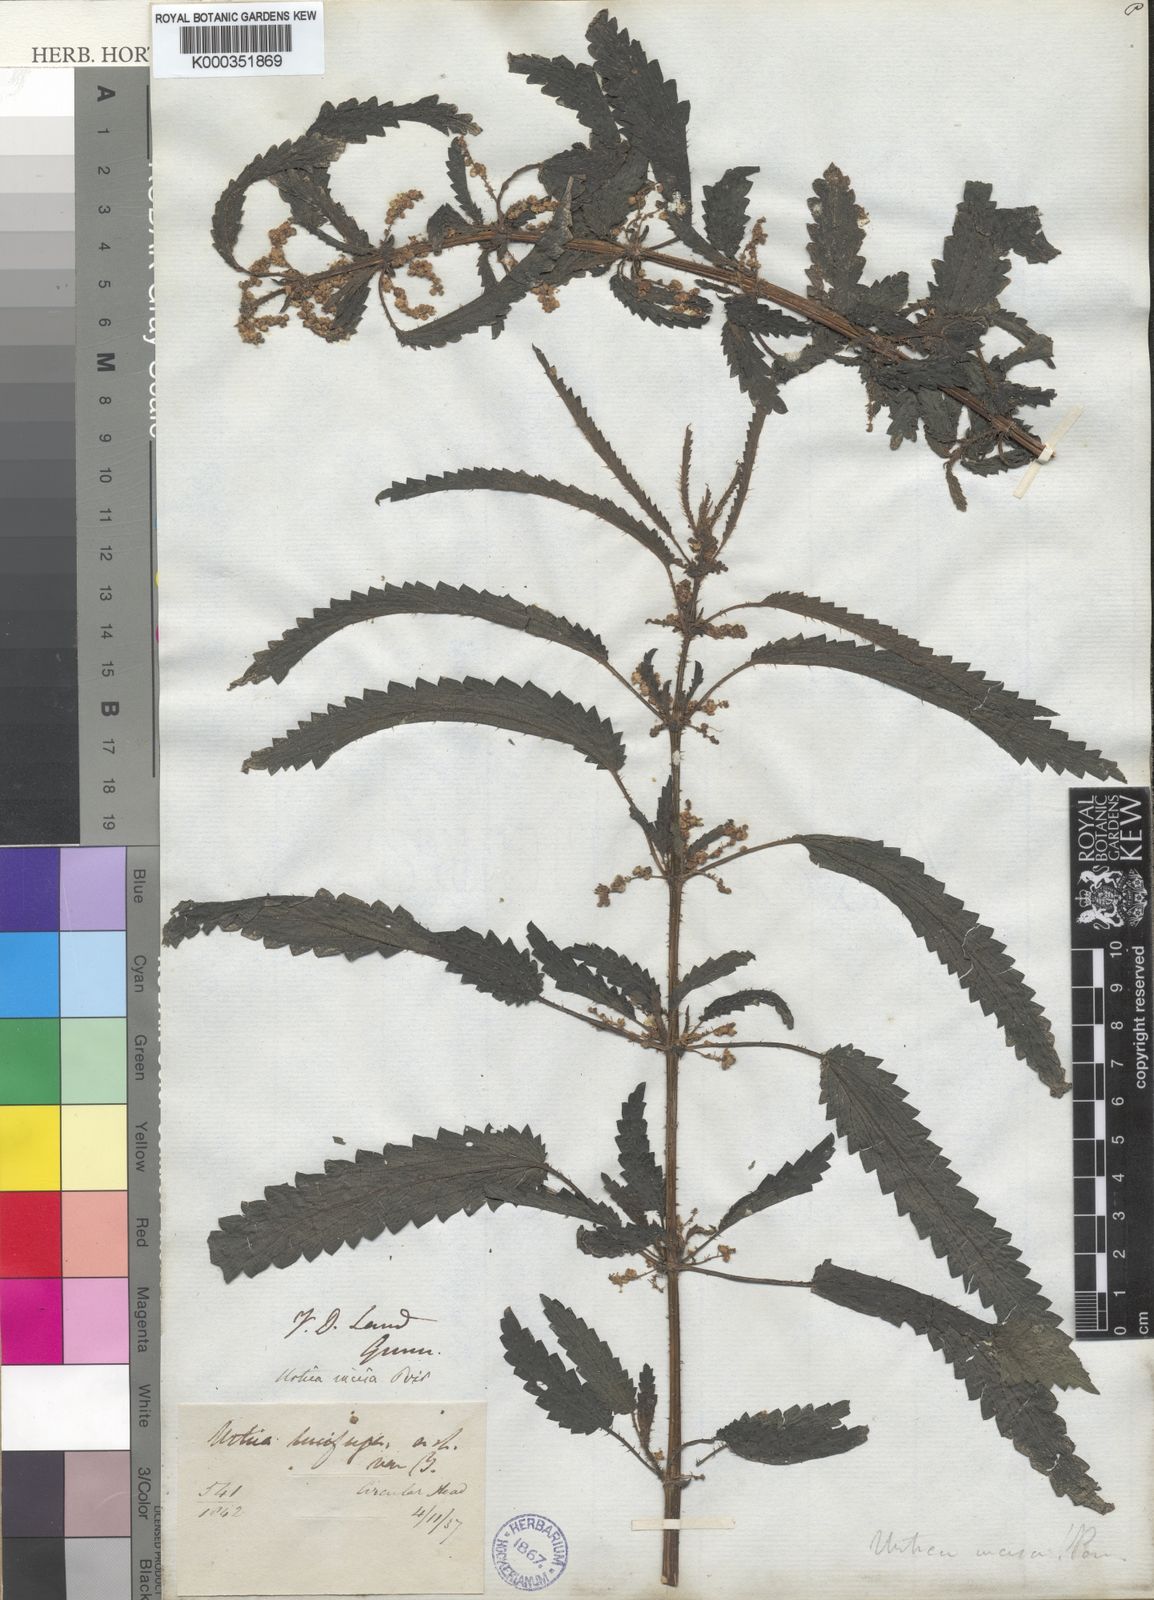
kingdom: Plantae
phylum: Tracheophyta
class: Magnoliopsida
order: Rosales
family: Urticaceae
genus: Urtica
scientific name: Urtica incisa
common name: Scrub nettle
